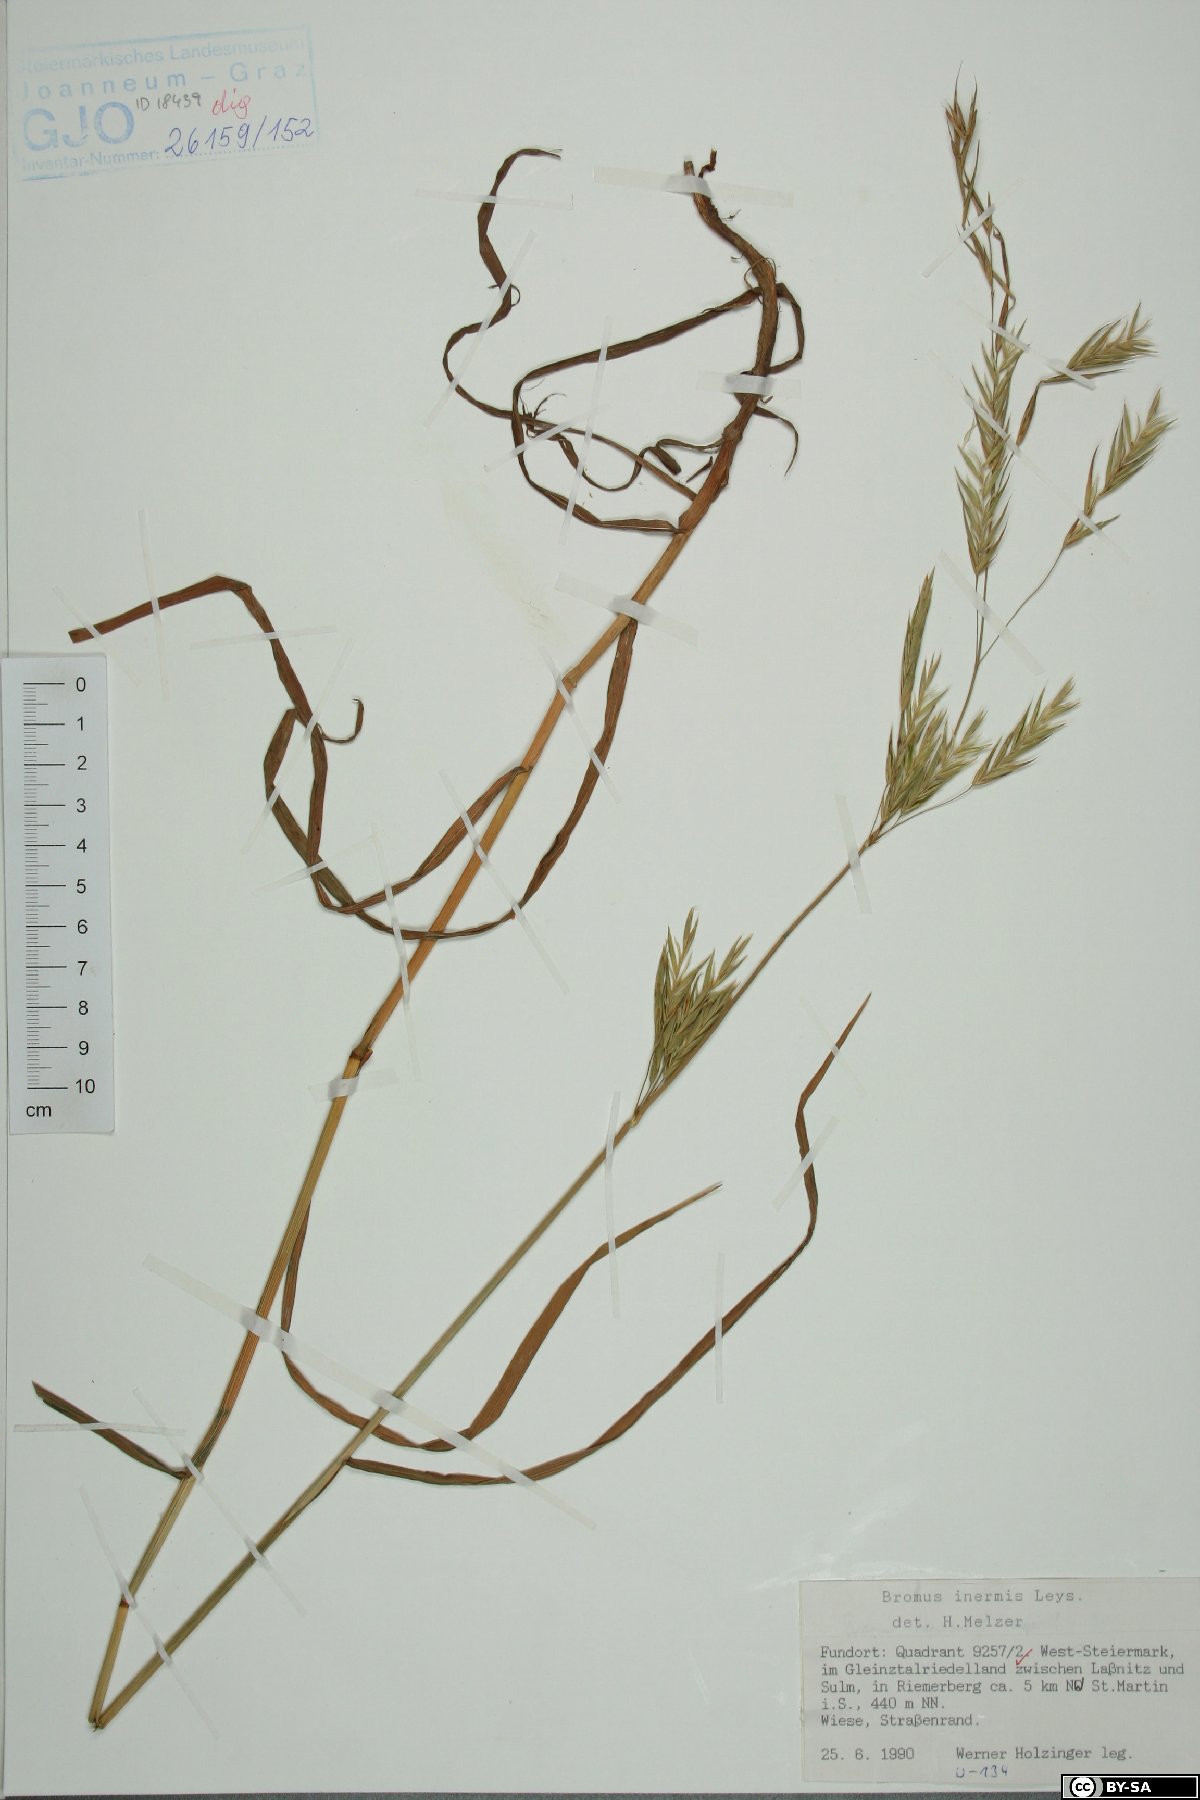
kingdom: Plantae
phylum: Tracheophyta
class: Liliopsida
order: Poales
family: Poaceae
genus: Bromus
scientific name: Bromus inermis
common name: Smooth brome
